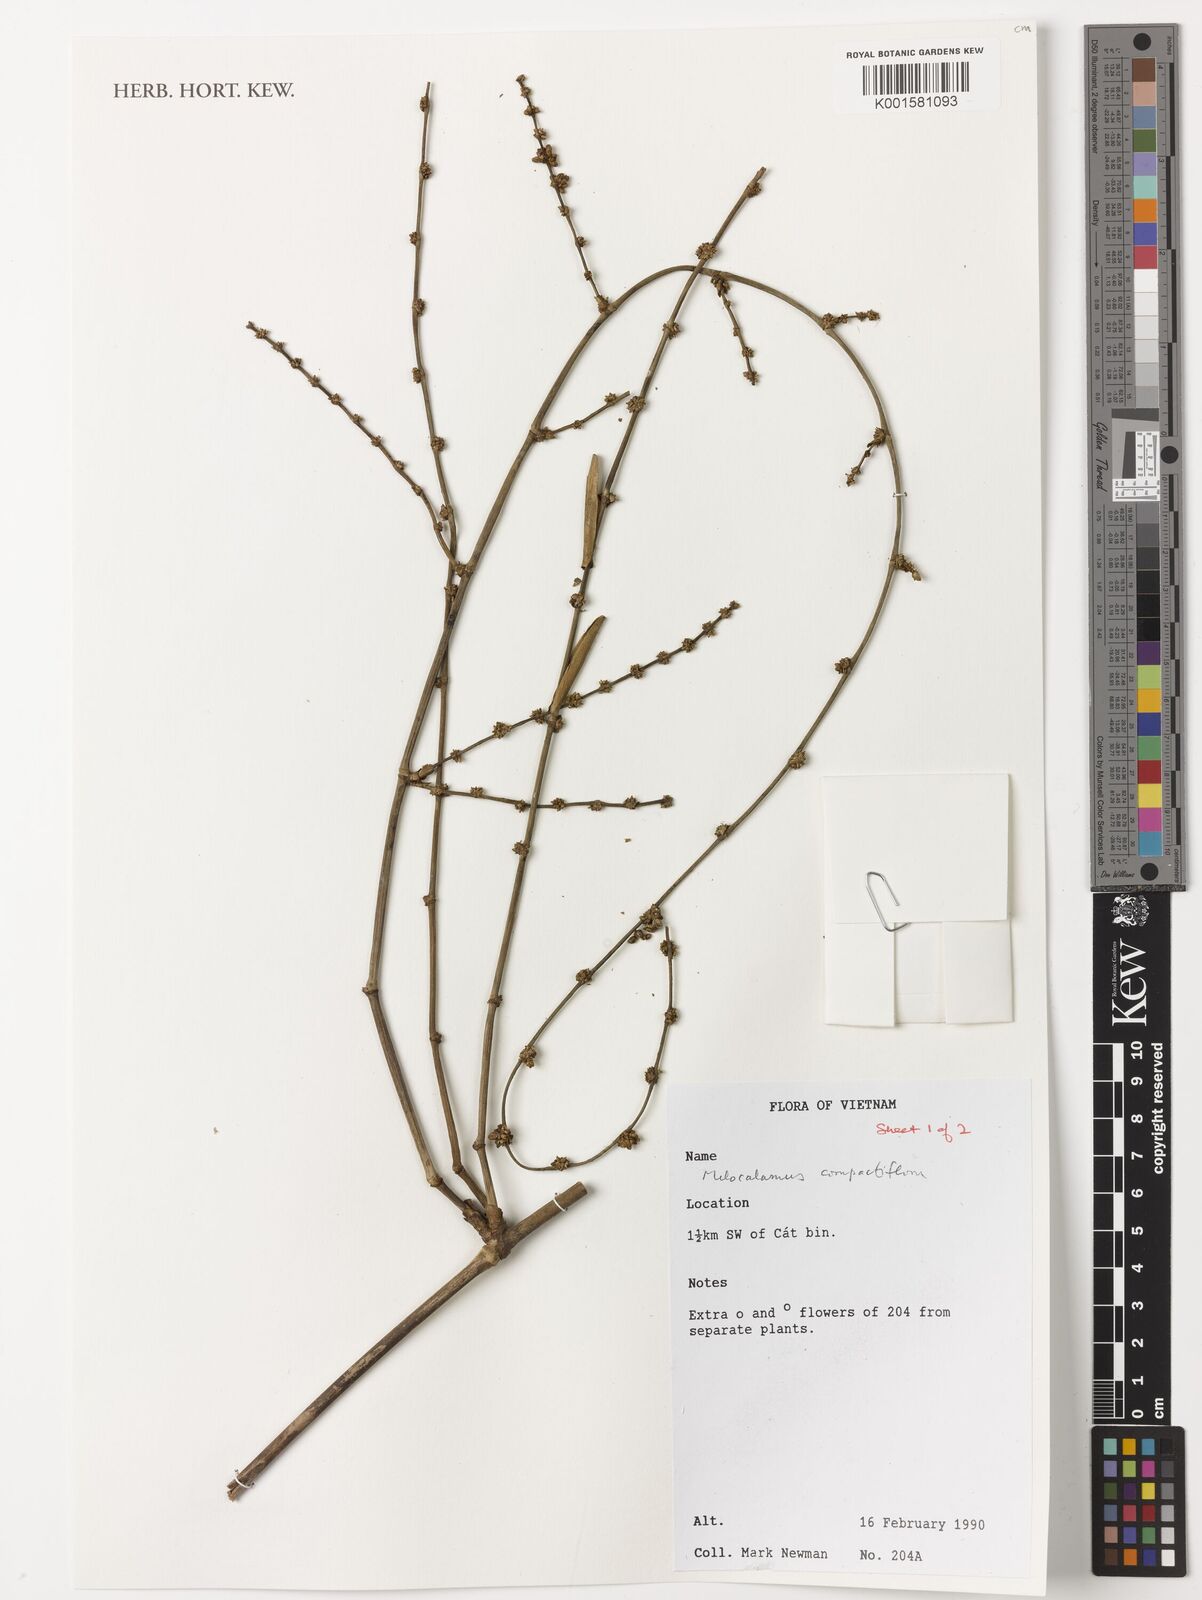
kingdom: Plantae
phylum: Tracheophyta
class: Liliopsida
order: Poales
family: Poaceae
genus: Melocalamus
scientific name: Melocalamus compactiflorus
